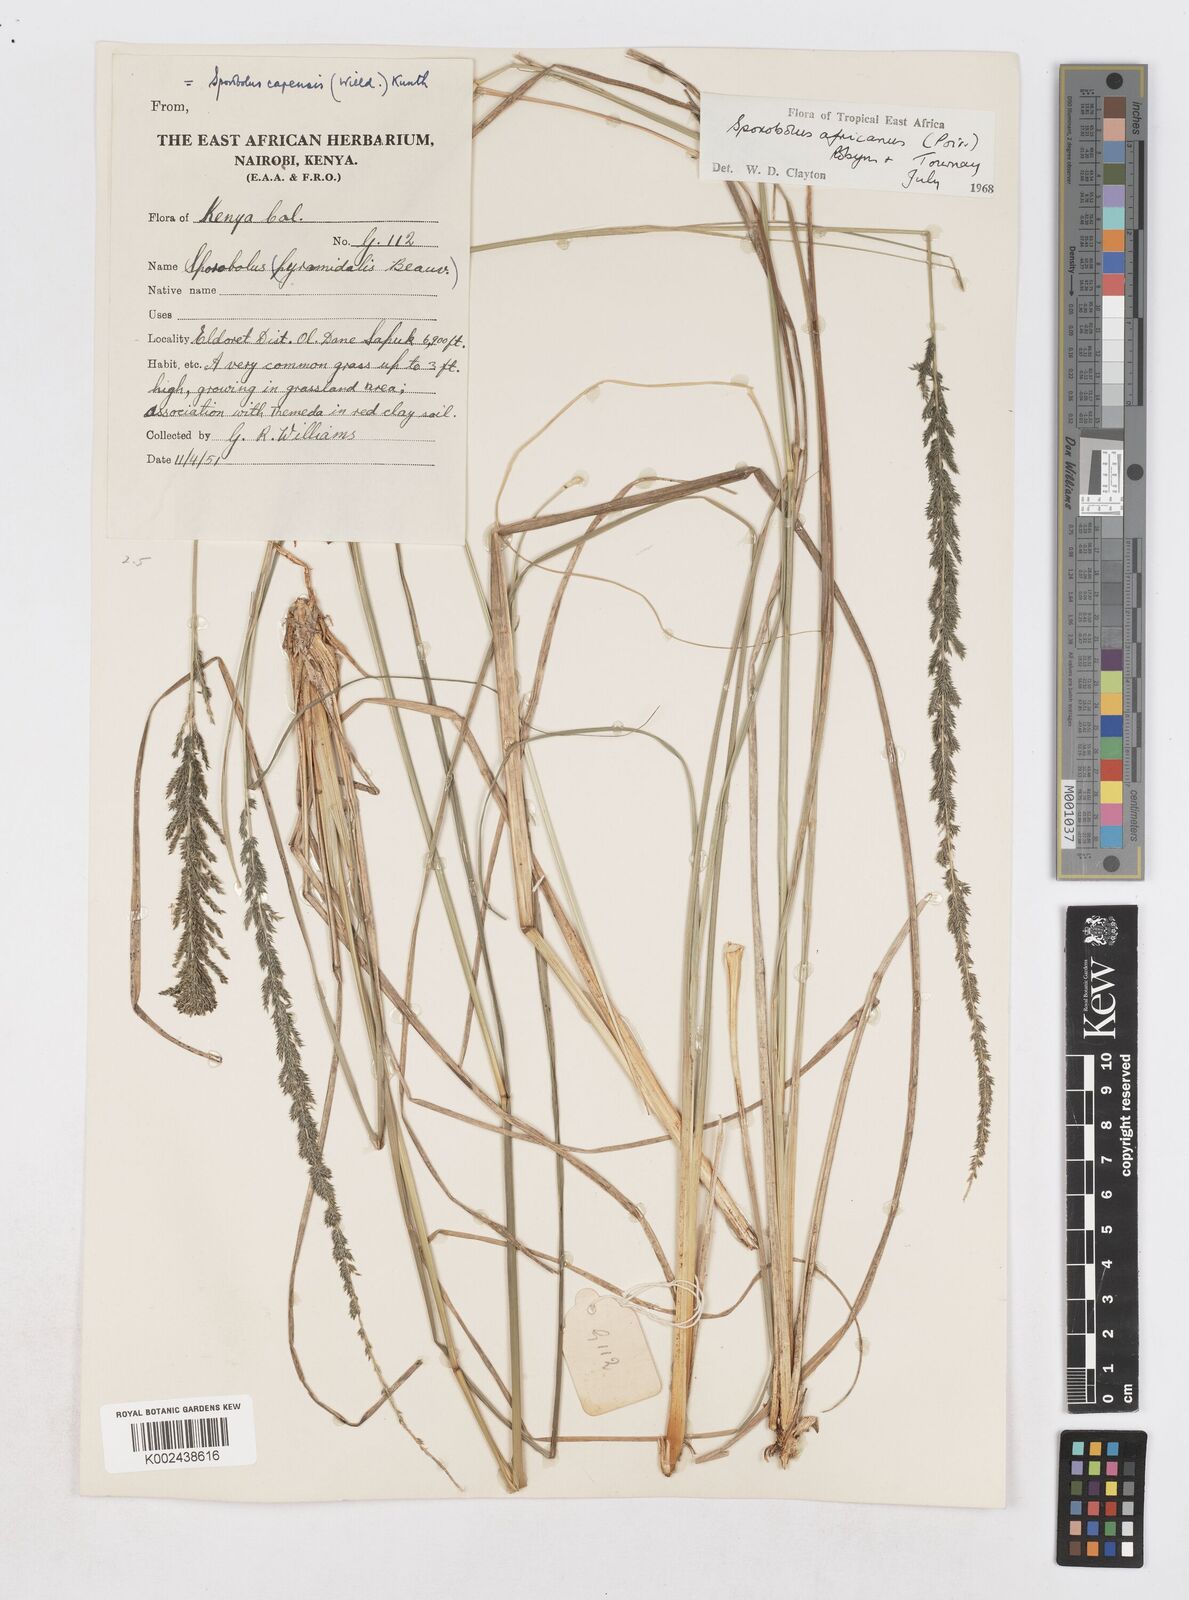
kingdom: Plantae
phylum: Tracheophyta
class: Liliopsida
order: Poales
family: Poaceae
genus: Sporobolus
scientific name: Sporobolus africanus
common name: African dropseed
